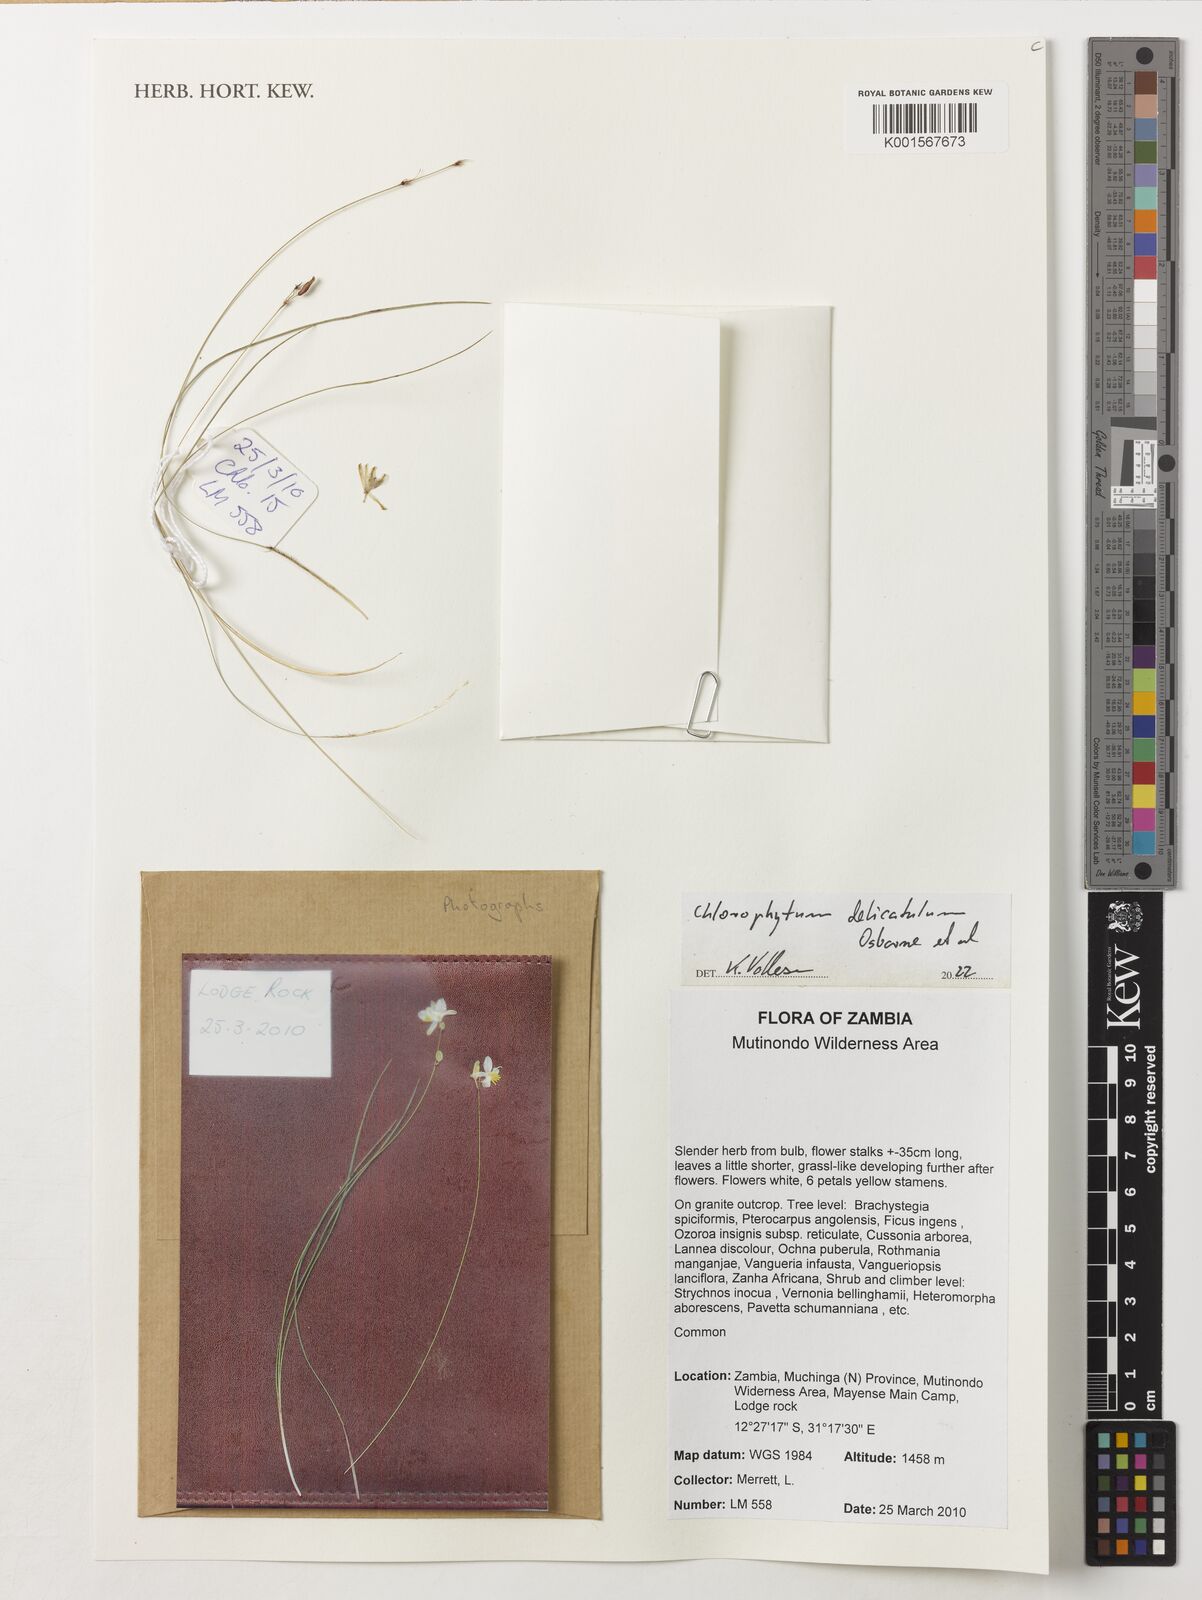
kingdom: Plantae
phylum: Tracheophyta
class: Liliopsida
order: Asparagales
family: Asparagaceae
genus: Chlorophytum
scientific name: Chlorophytum
